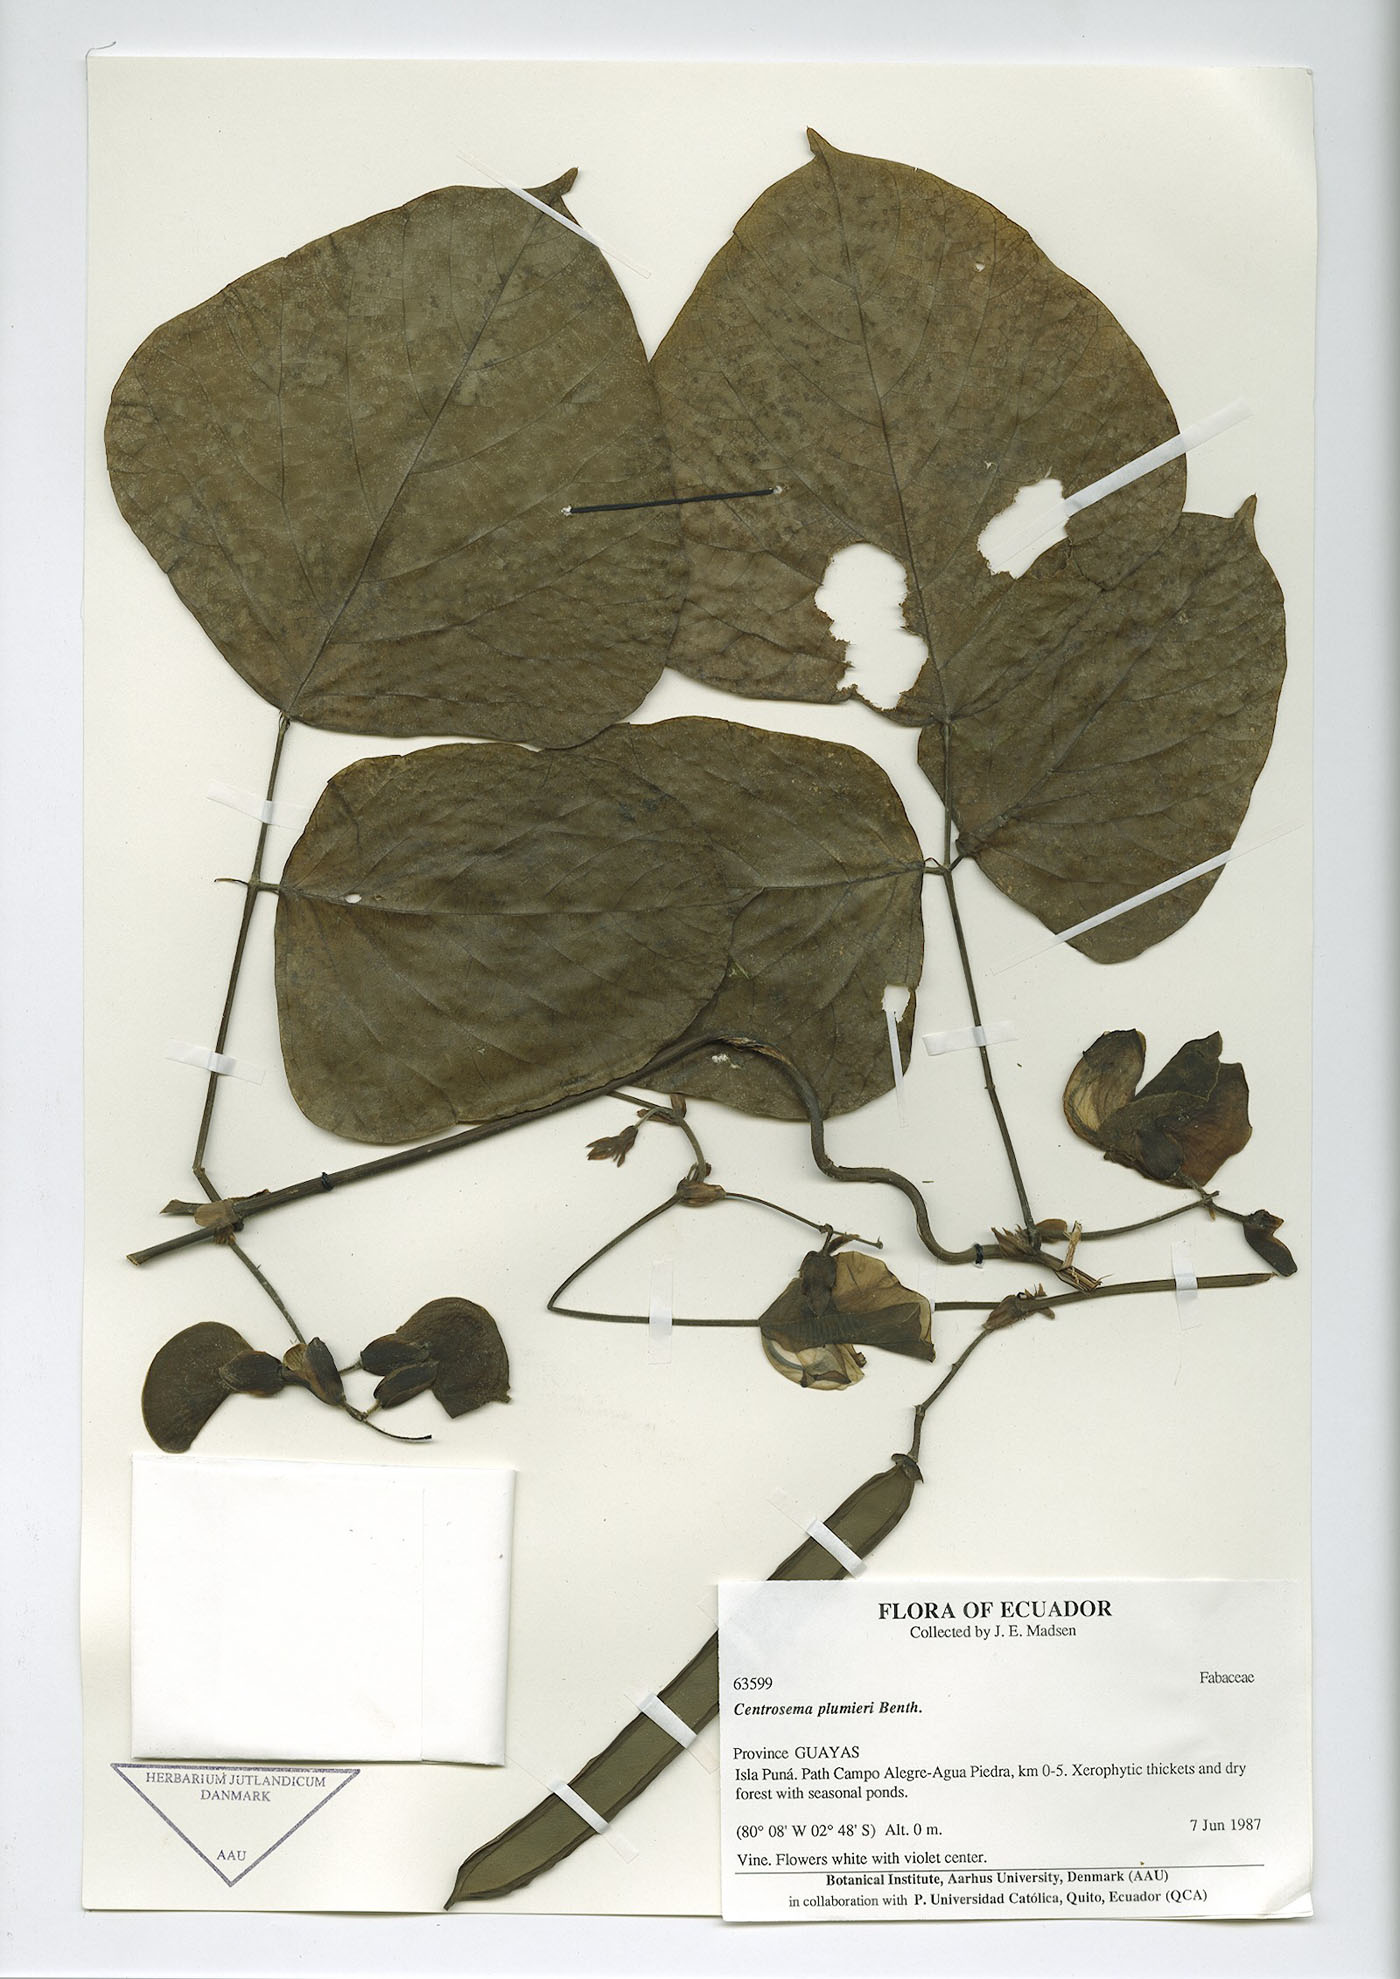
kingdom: Plantae
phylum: Tracheophyta
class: Magnoliopsida
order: Fabales
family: Fabaceae
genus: Centrosema
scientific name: Centrosema plumieri
